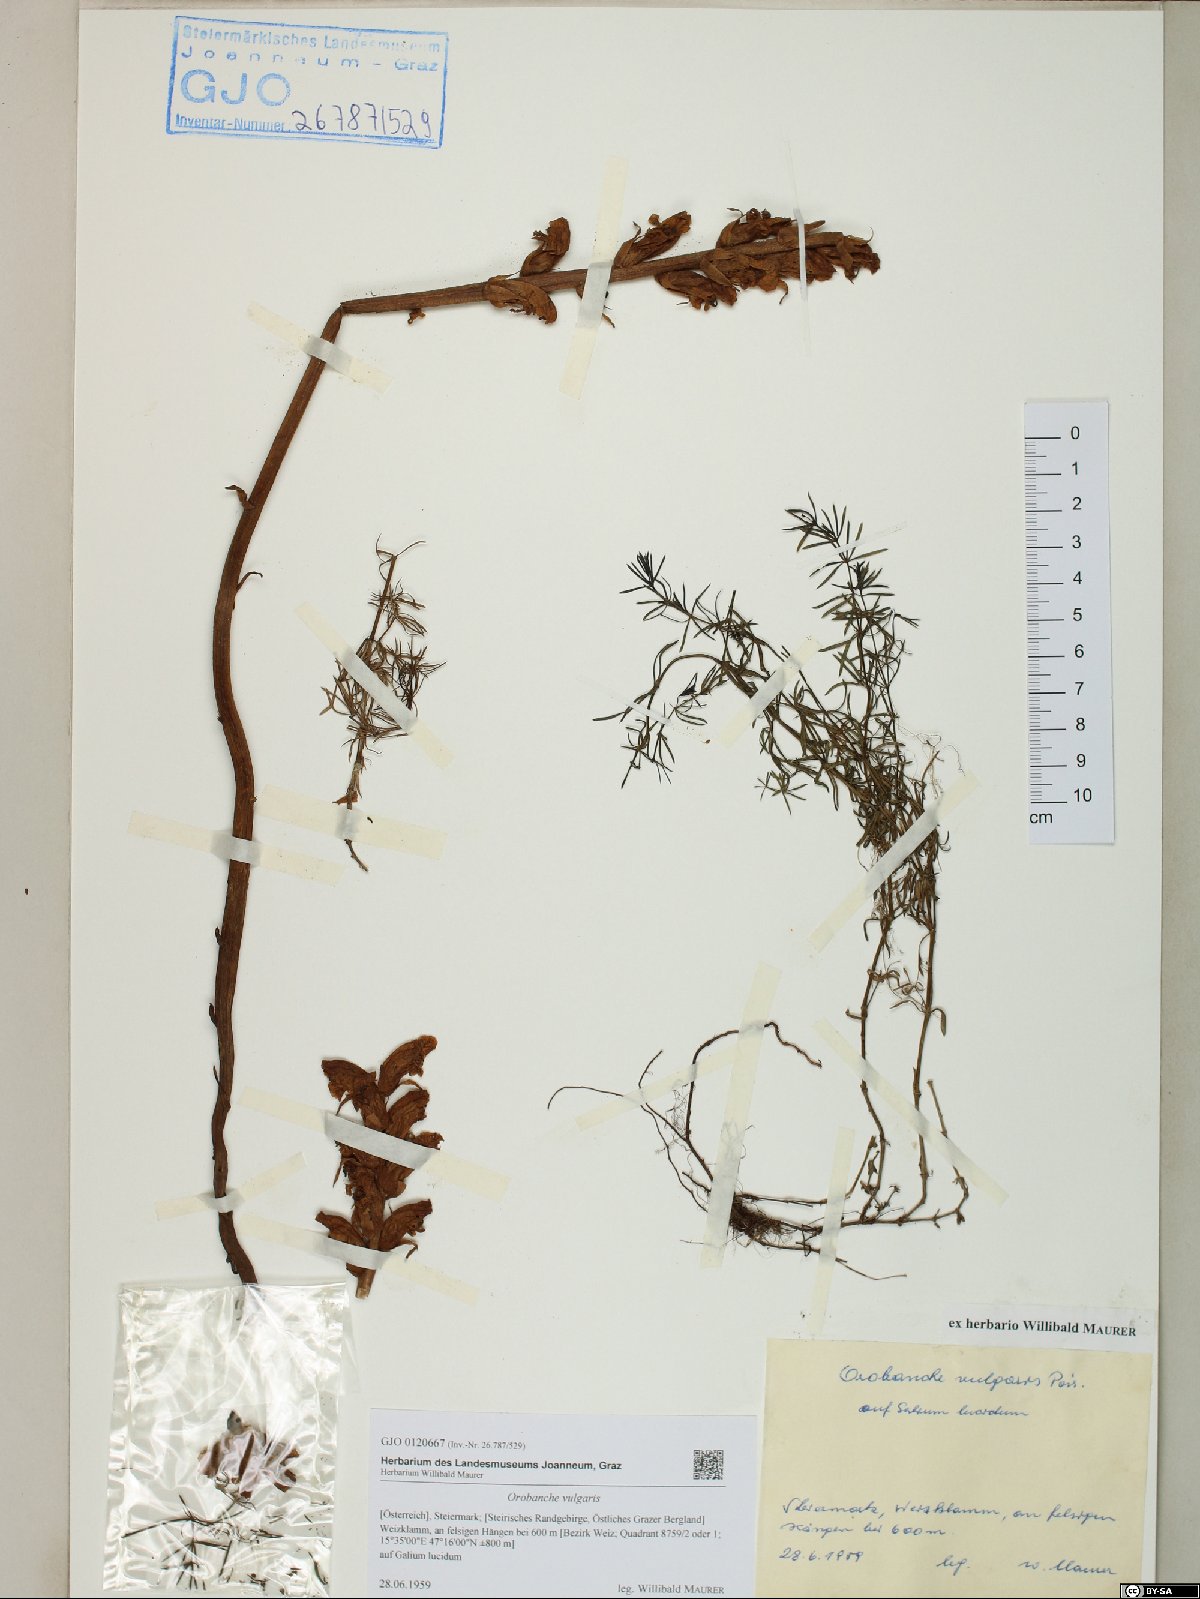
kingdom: Plantae
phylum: Tracheophyta
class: Magnoliopsida
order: Lamiales
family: Orobanchaceae
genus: Orobanche
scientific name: Orobanche caryophyllacea
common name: Bedstraw broomrape
